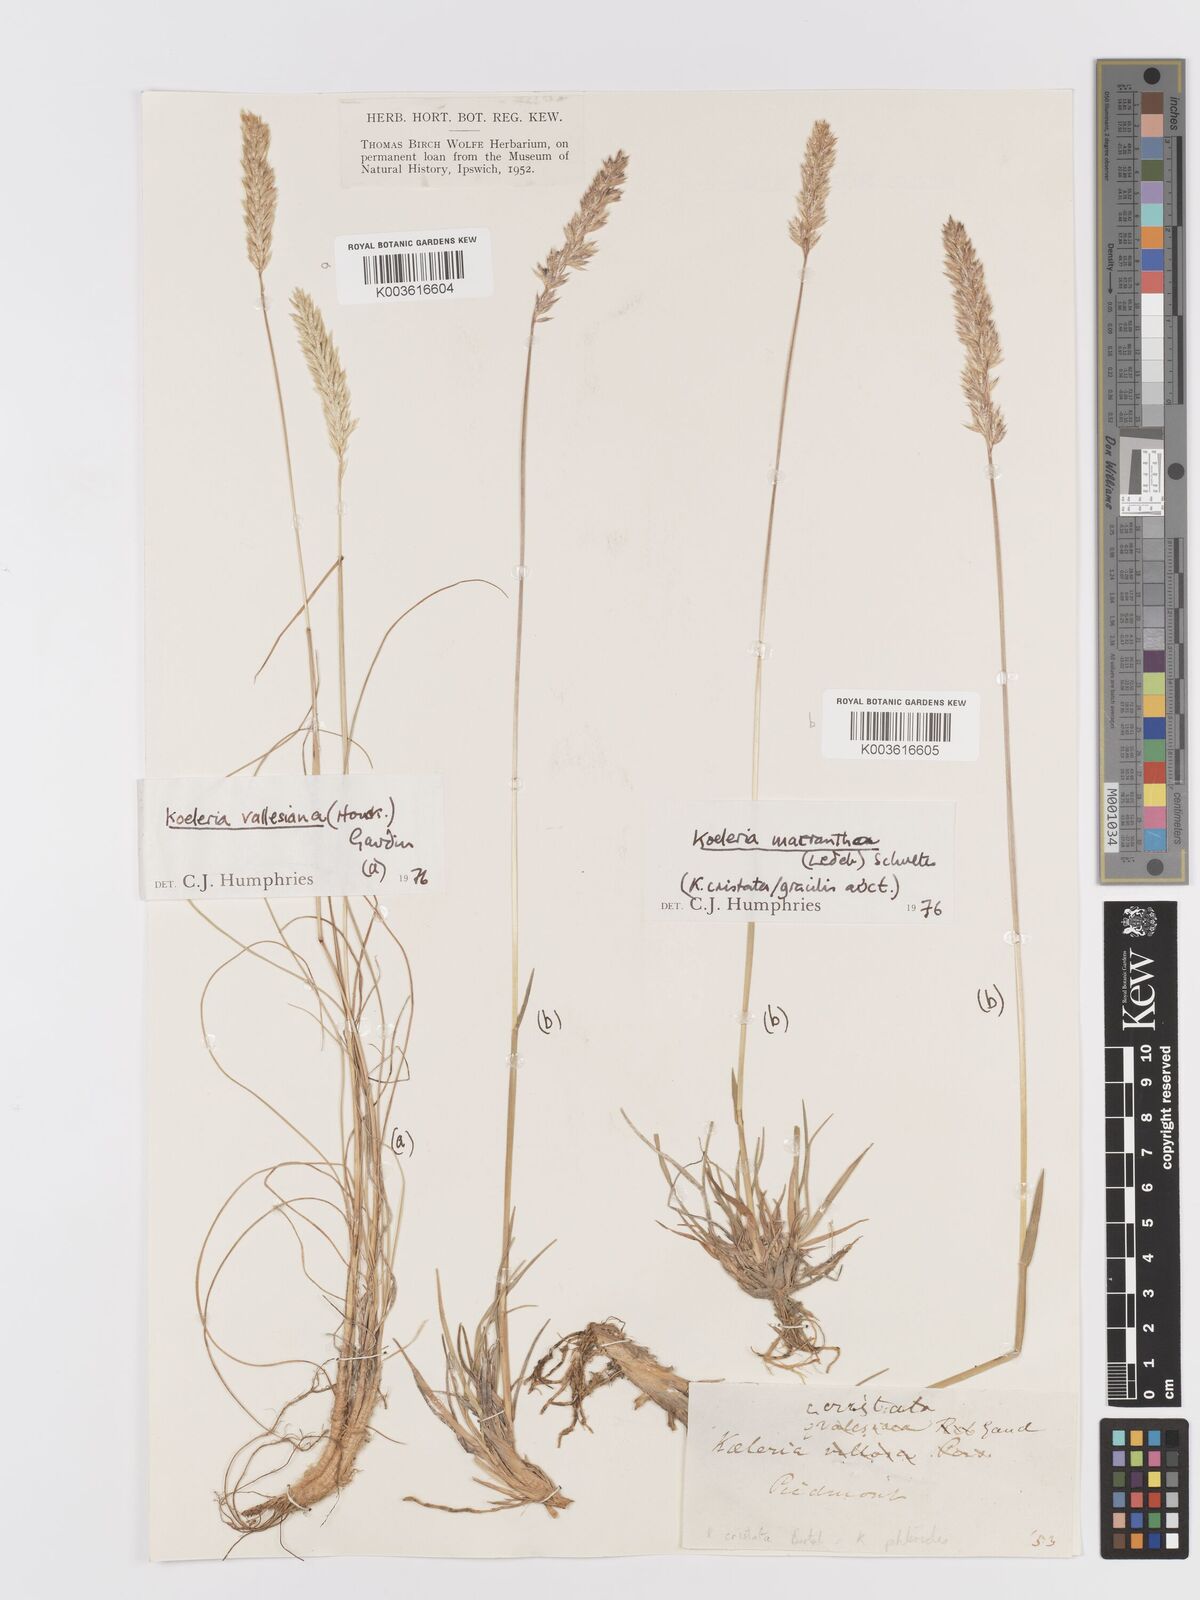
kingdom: Plantae
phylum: Tracheophyta
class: Liliopsida
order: Poales
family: Poaceae
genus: Koeleria
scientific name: Koeleria vallesiana
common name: Somerset hair-grass
